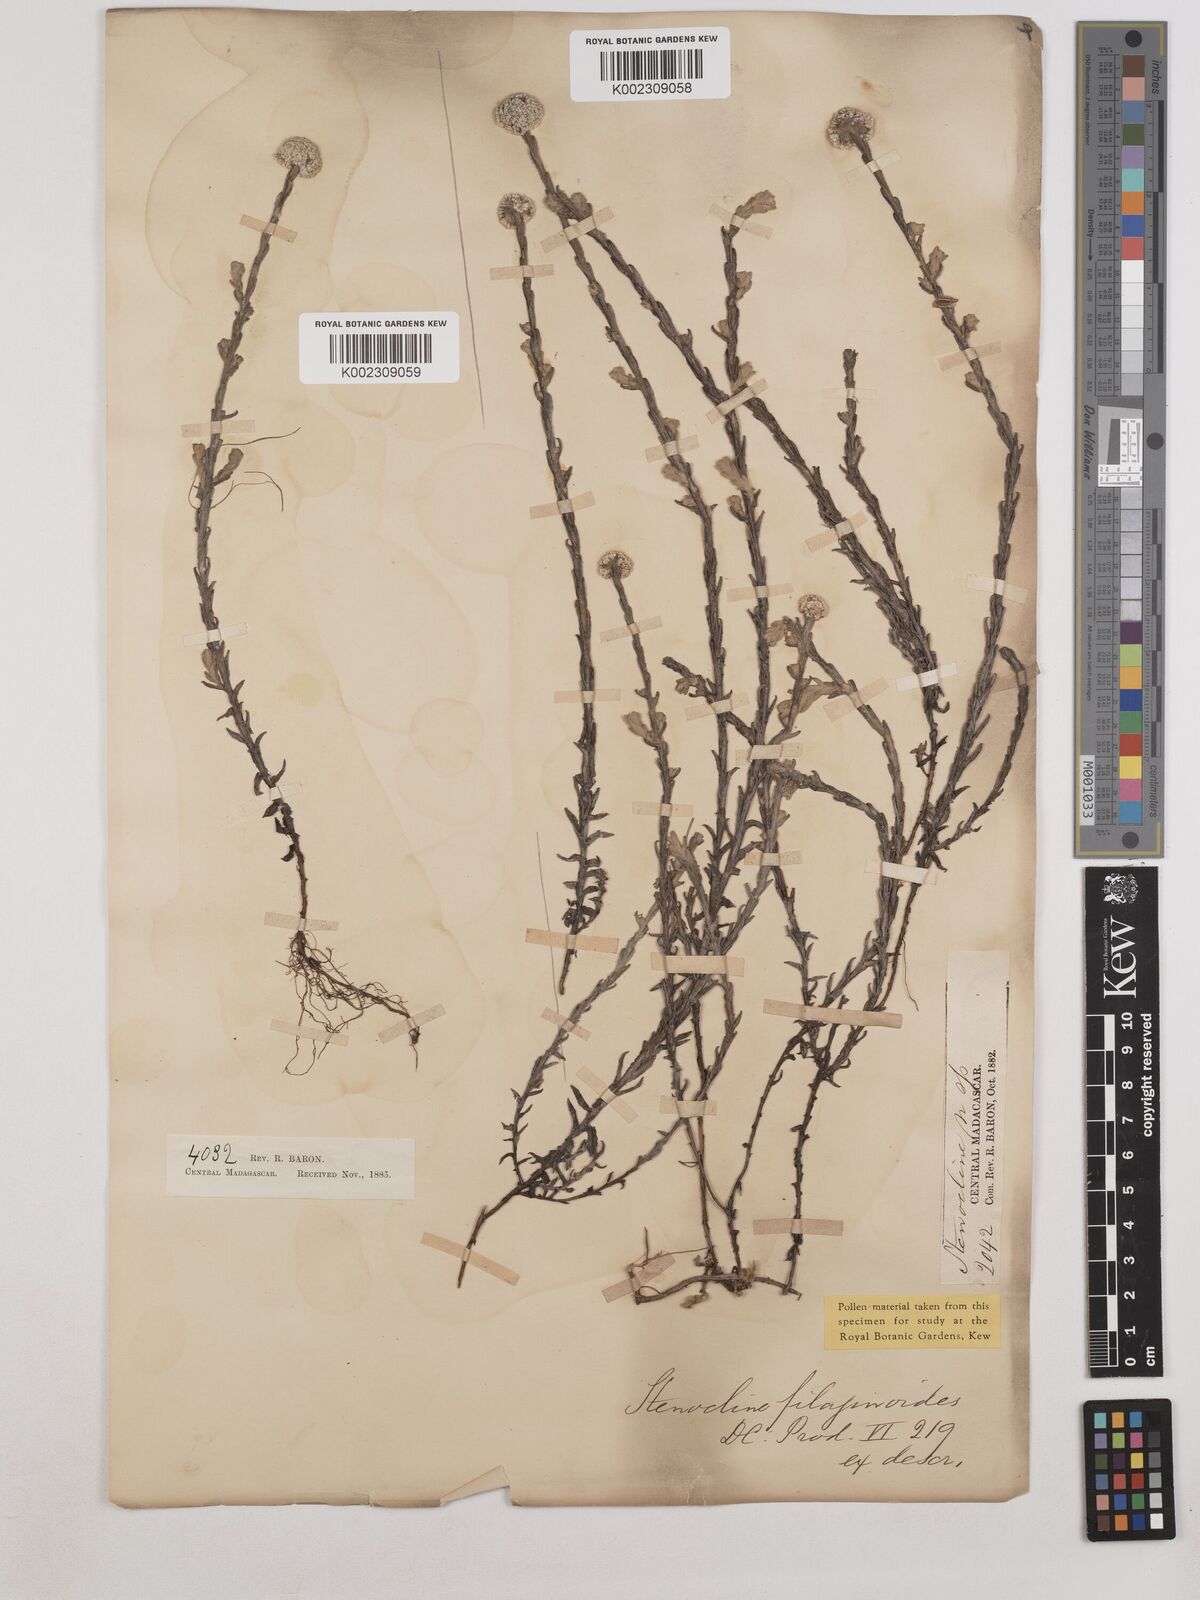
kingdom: Plantae
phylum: Tracheophyta
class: Magnoliopsida
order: Asterales
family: Asteraceae
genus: Helichrysum
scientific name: Helichrysum filaginoides
